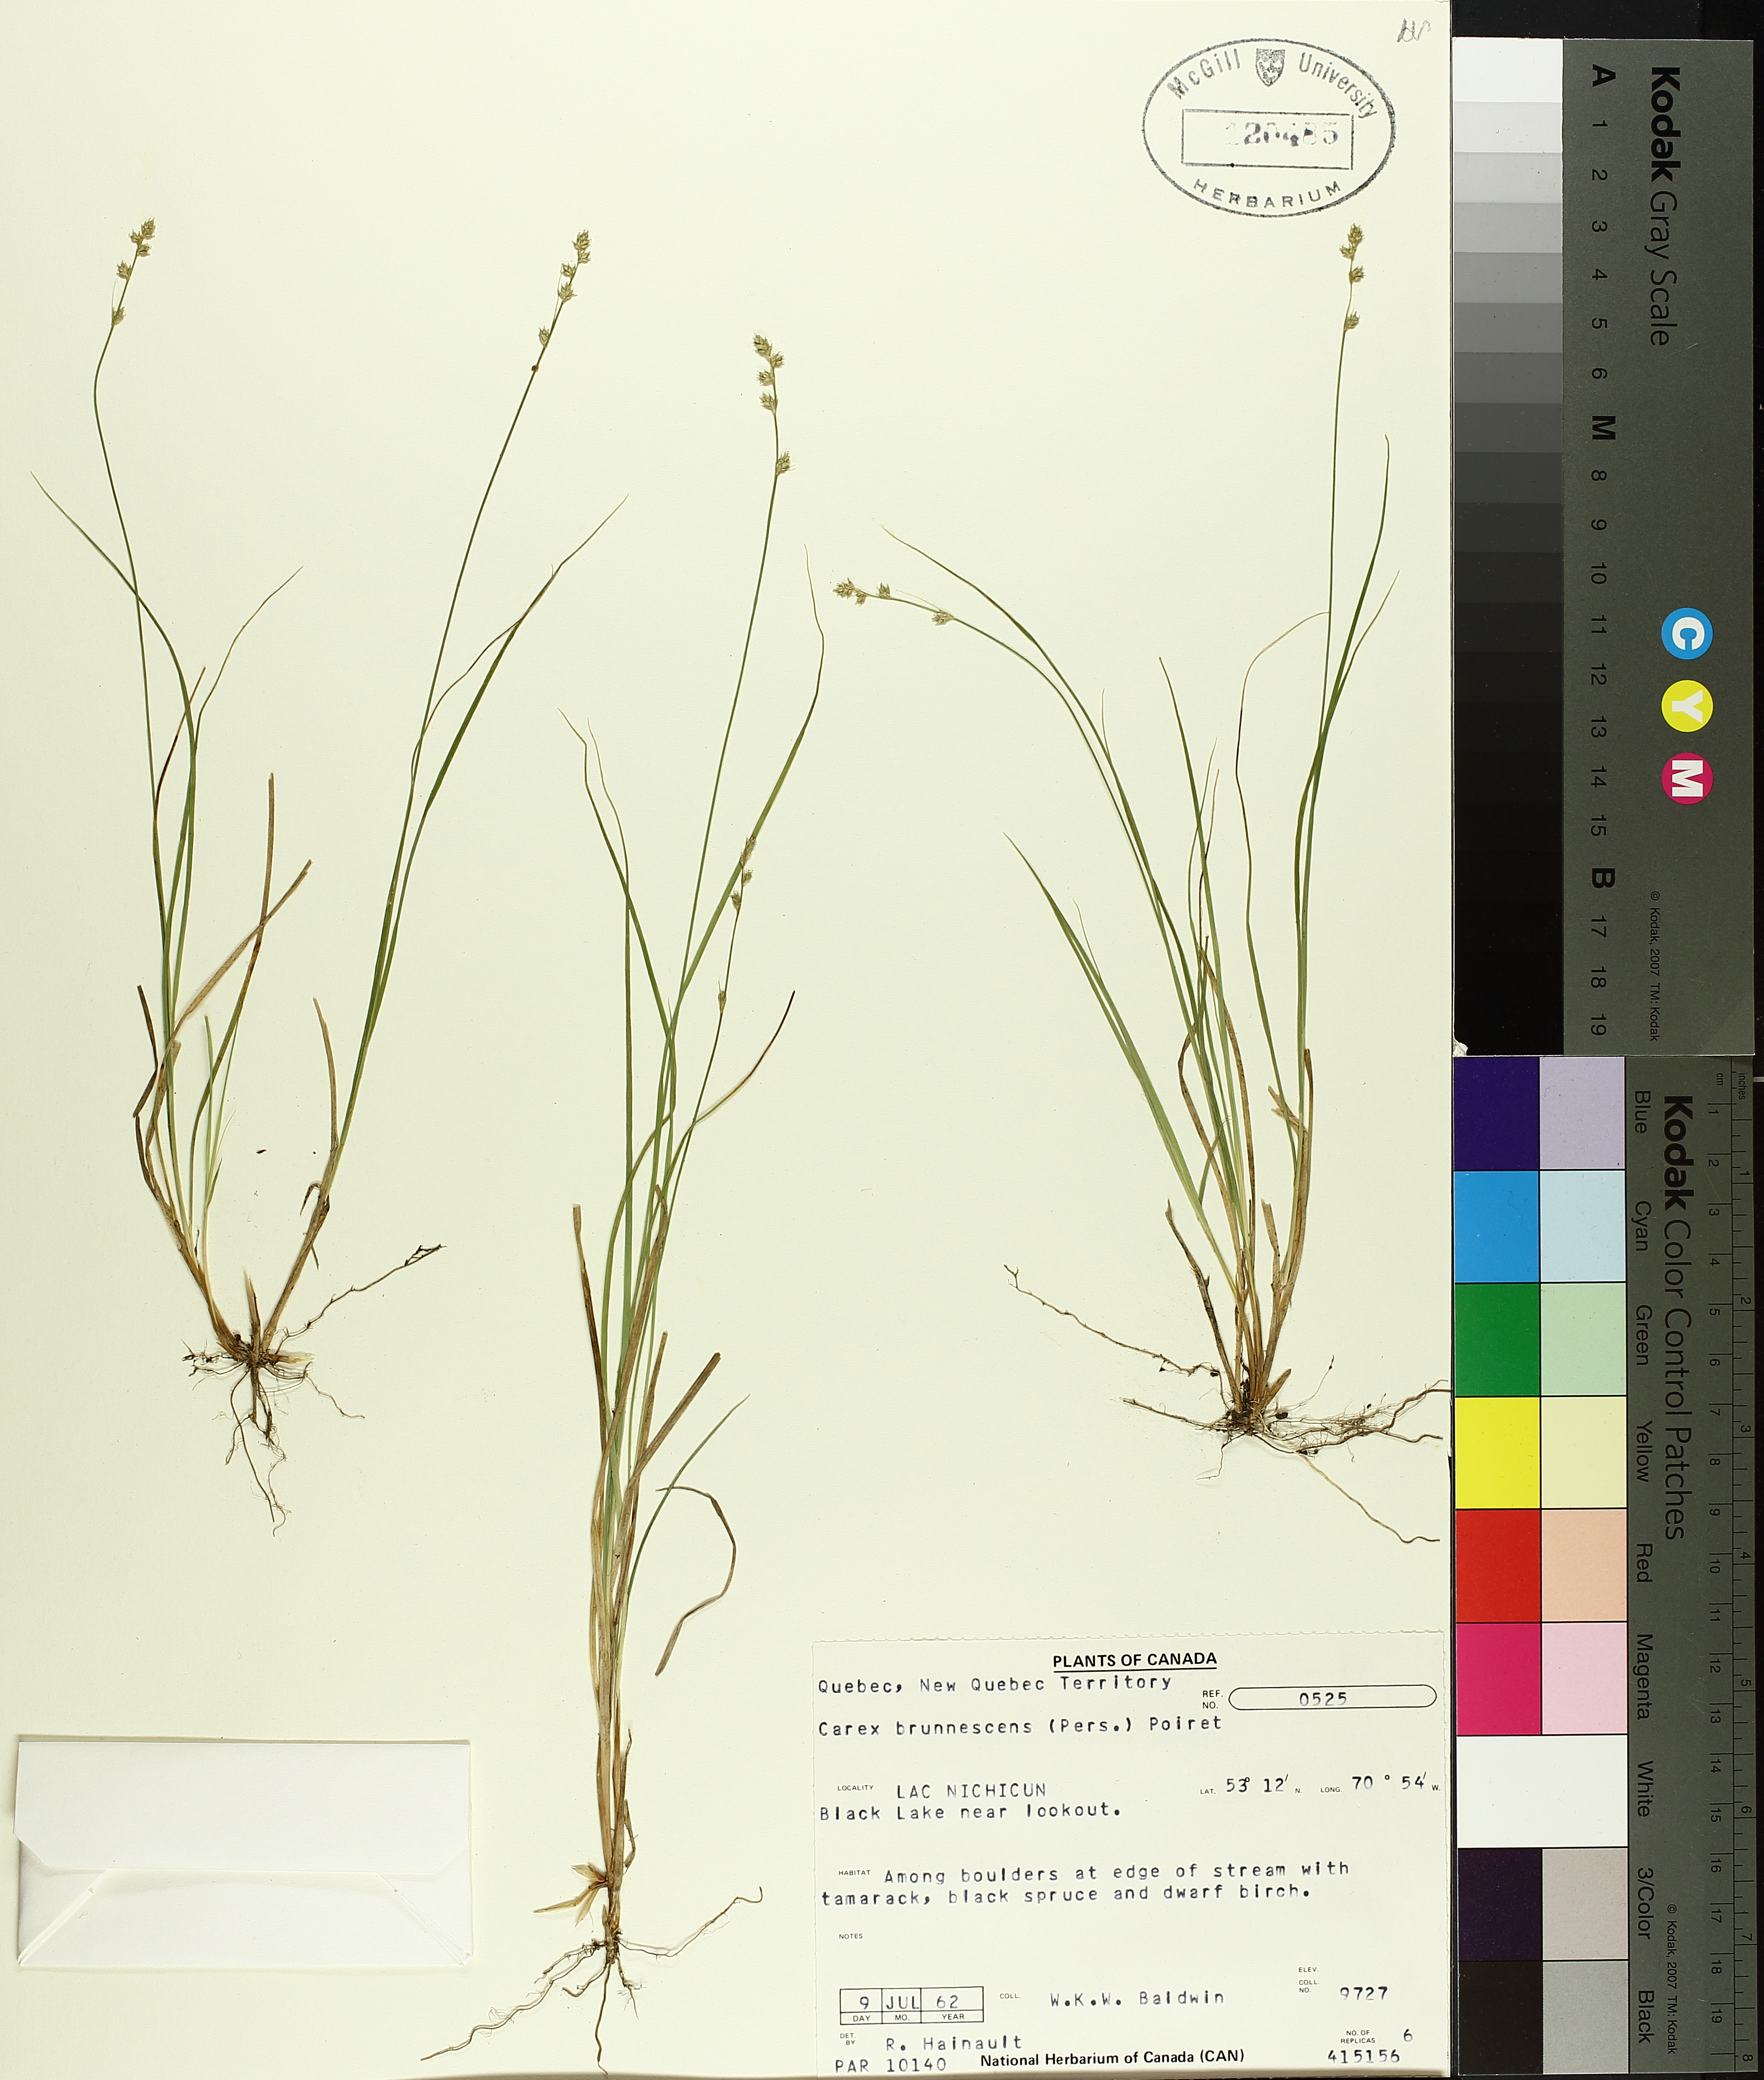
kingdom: Plantae
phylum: Tracheophyta
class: Liliopsida
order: Poales
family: Cyperaceae
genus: Carex
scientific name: Carex brunnescens
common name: Brown sedge
